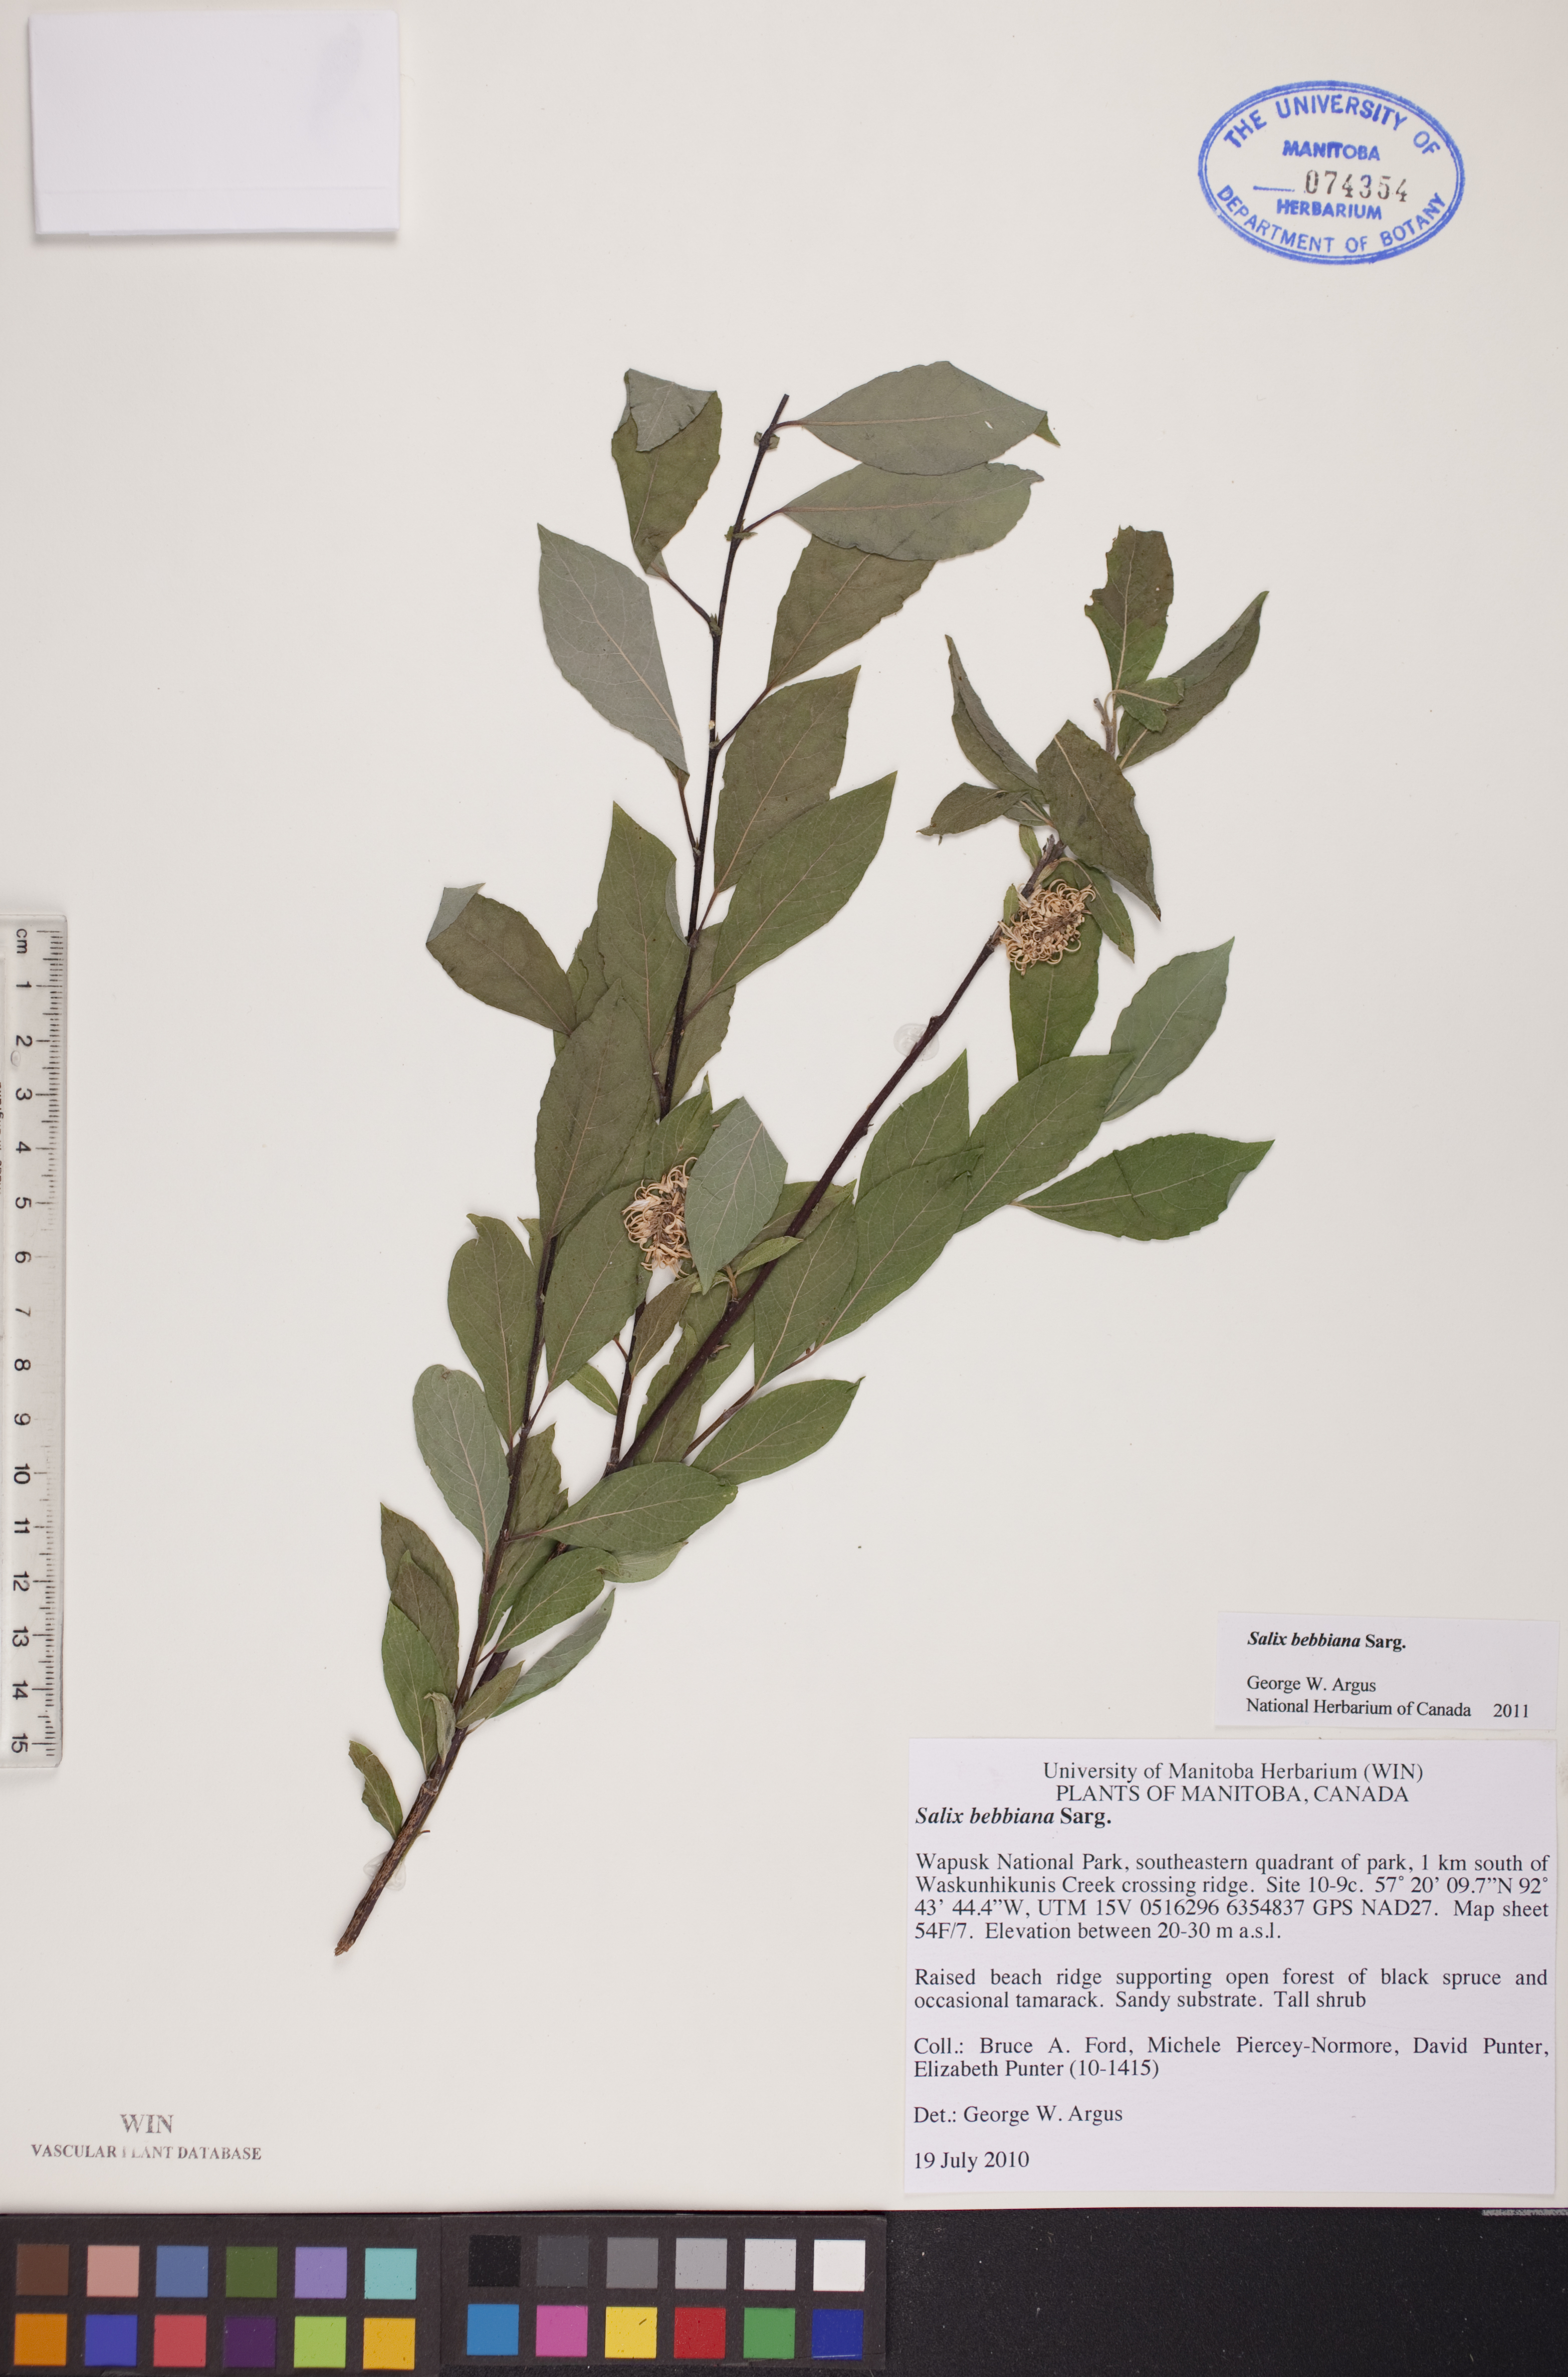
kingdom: Plantae
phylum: Tracheophyta
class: Magnoliopsida
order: Malpighiales
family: Salicaceae
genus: Salix
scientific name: Salix bebbiana
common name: Bebb's willow
